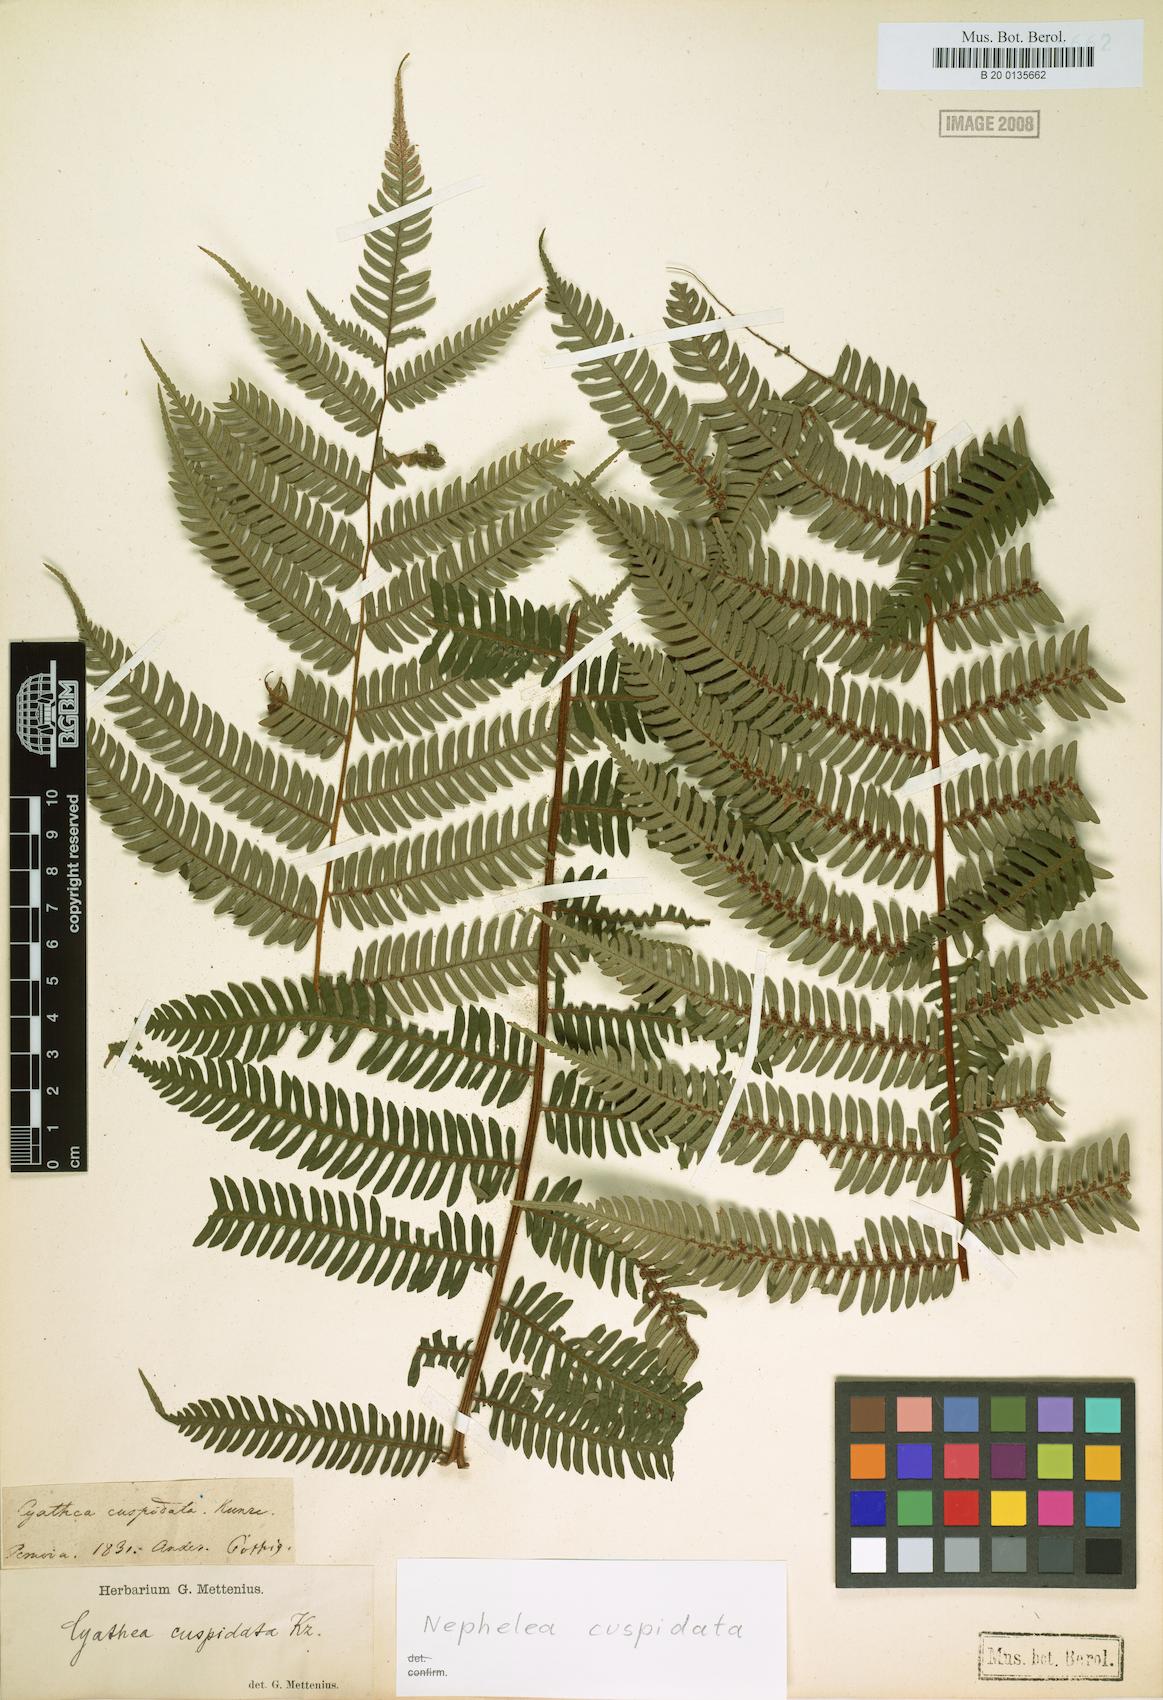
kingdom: Plantae
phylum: Tracheophyta
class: Polypodiopsida
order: Cyatheales
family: Cyatheaceae
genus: Alsophila
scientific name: Alsophila cuspidata
